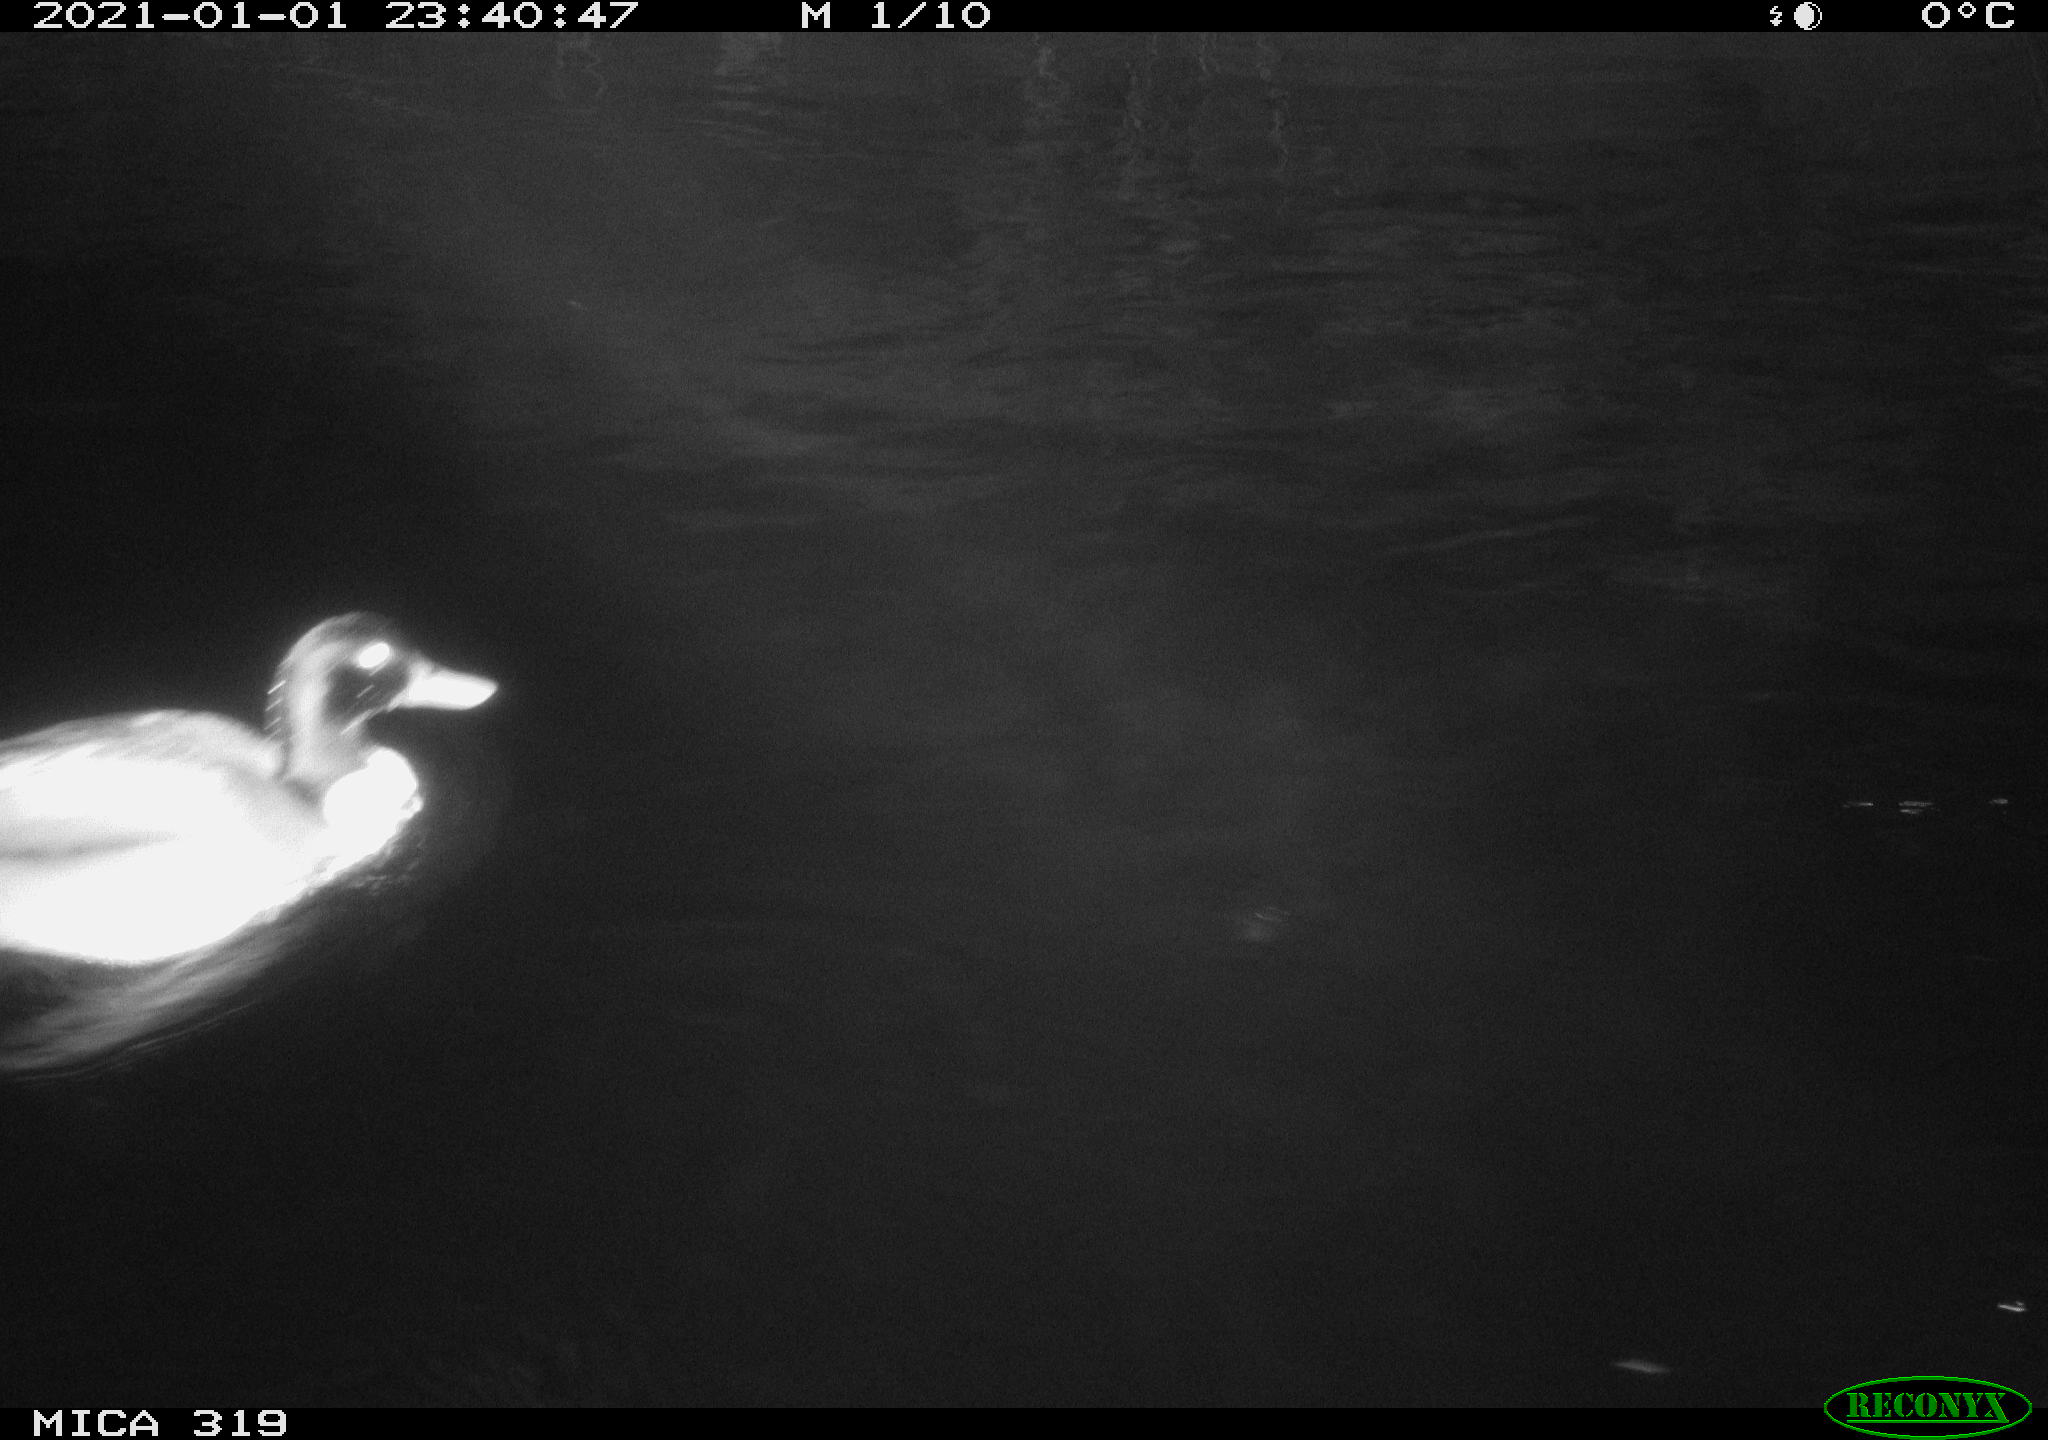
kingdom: Animalia
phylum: Chordata
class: Aves
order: Anseriformes
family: Anatidae
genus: Anas
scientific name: Anas platyrhynchos
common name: Mallard
